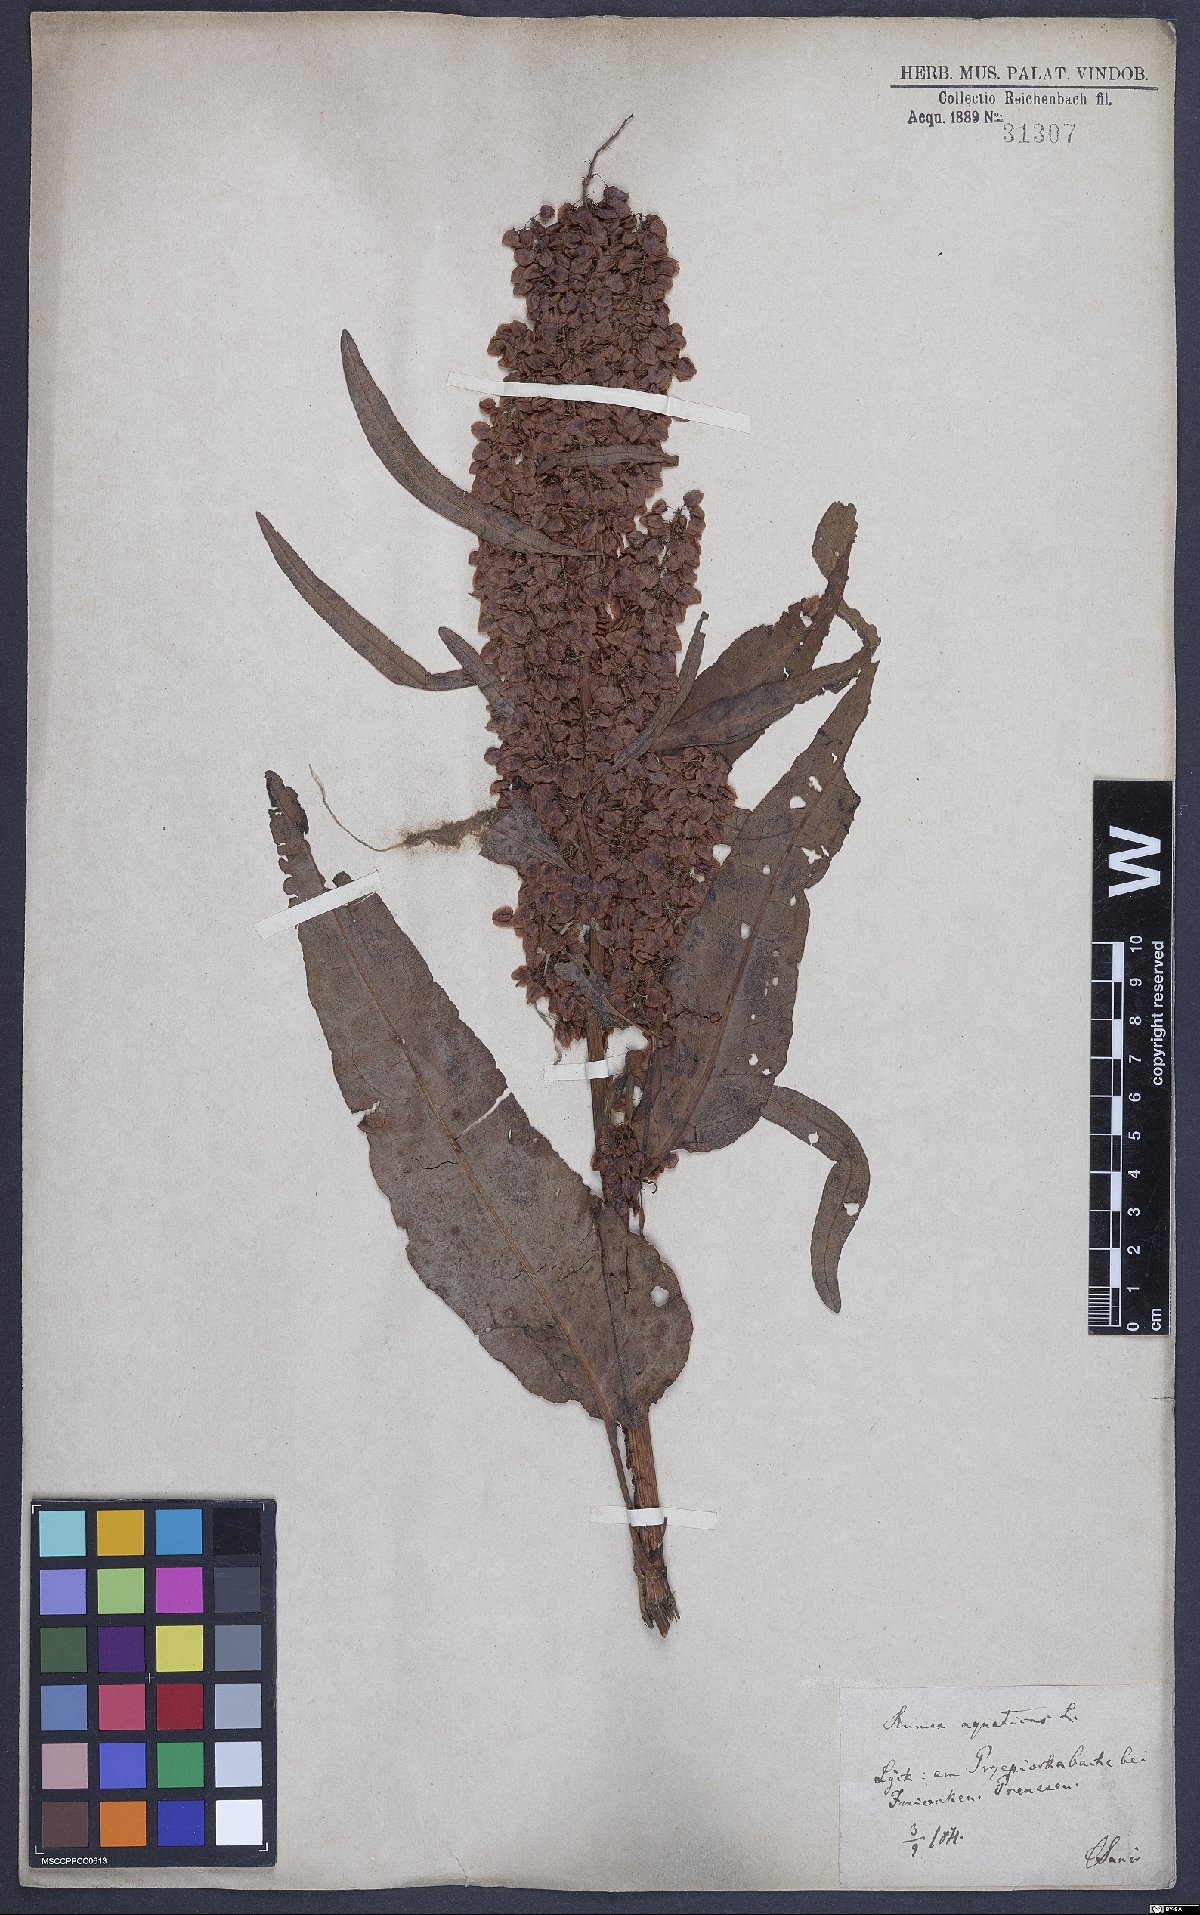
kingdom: Plantae
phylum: Tracheophyta
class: Magnoliopsida
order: Caryophyllales
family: Polygonaceae
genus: Rumex
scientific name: Rumex aquaticus
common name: Scottish dock
